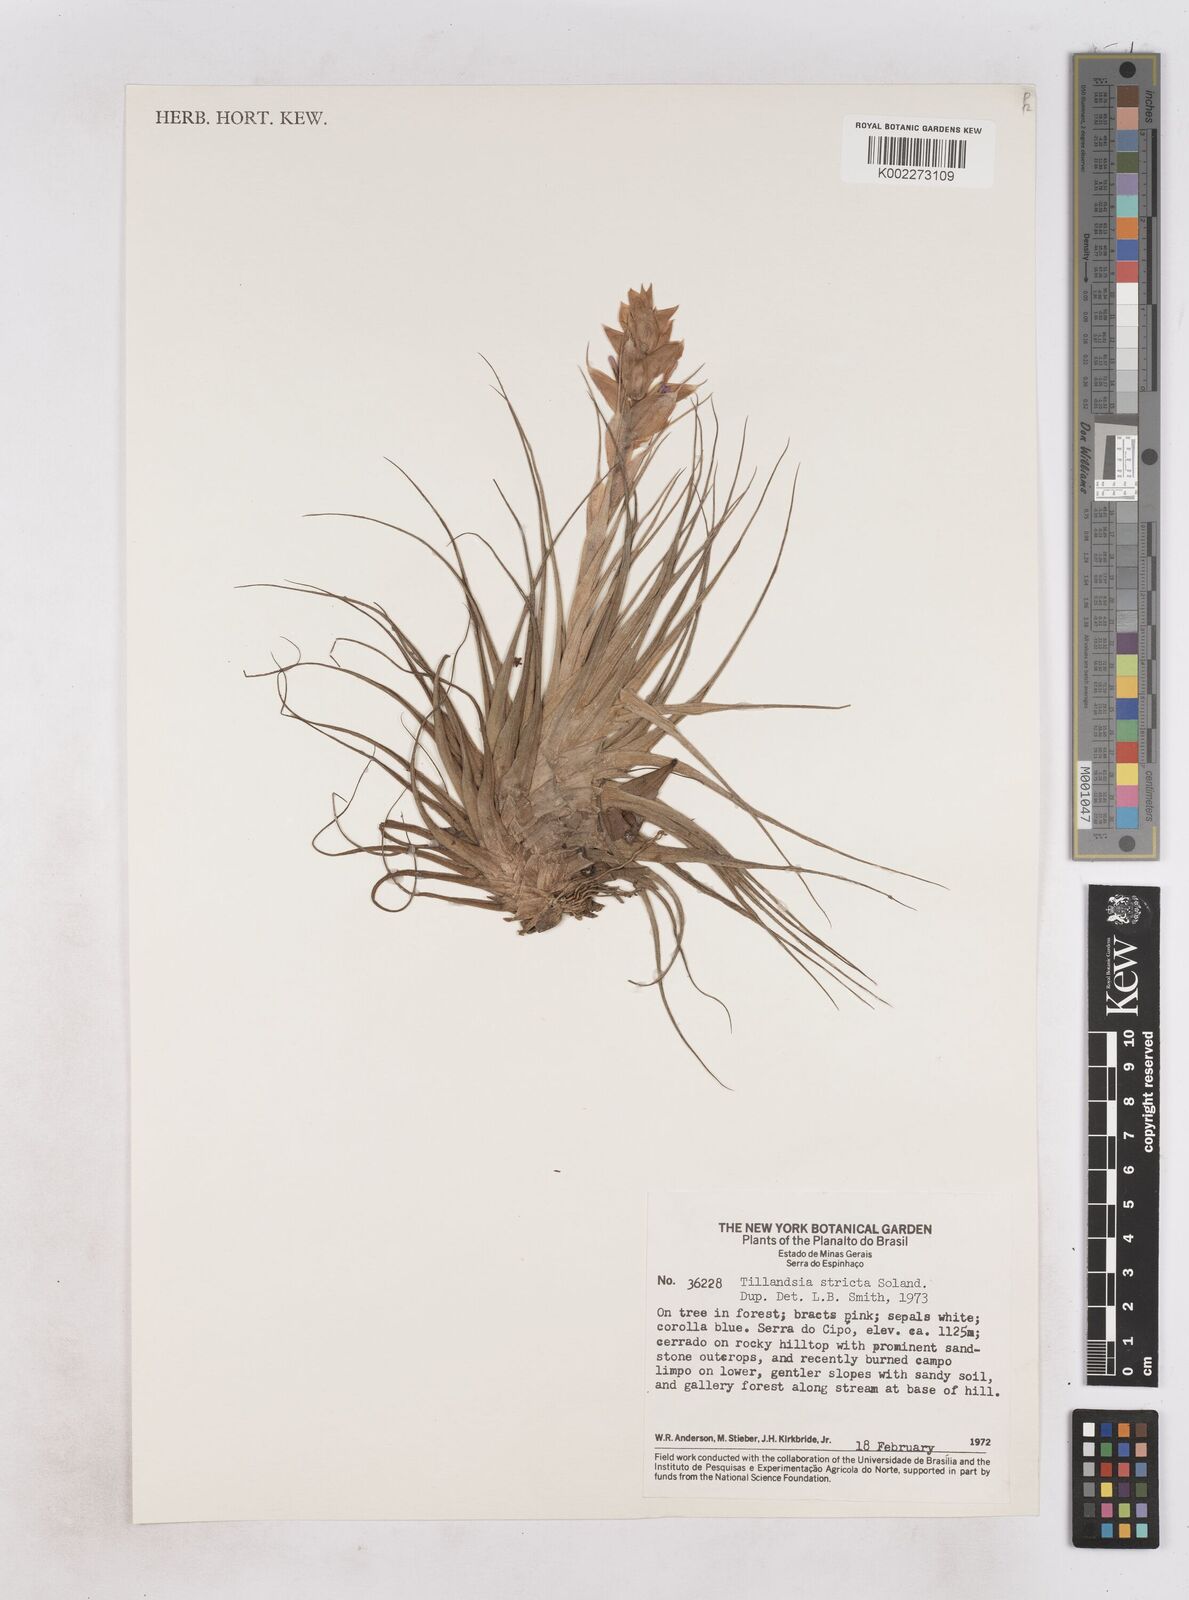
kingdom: Plantae
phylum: Tracheophyta
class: Liliopsida
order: Poales
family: Bromeliaceae
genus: Tillandsia
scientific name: Tillandsia stricta
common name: Airplant
